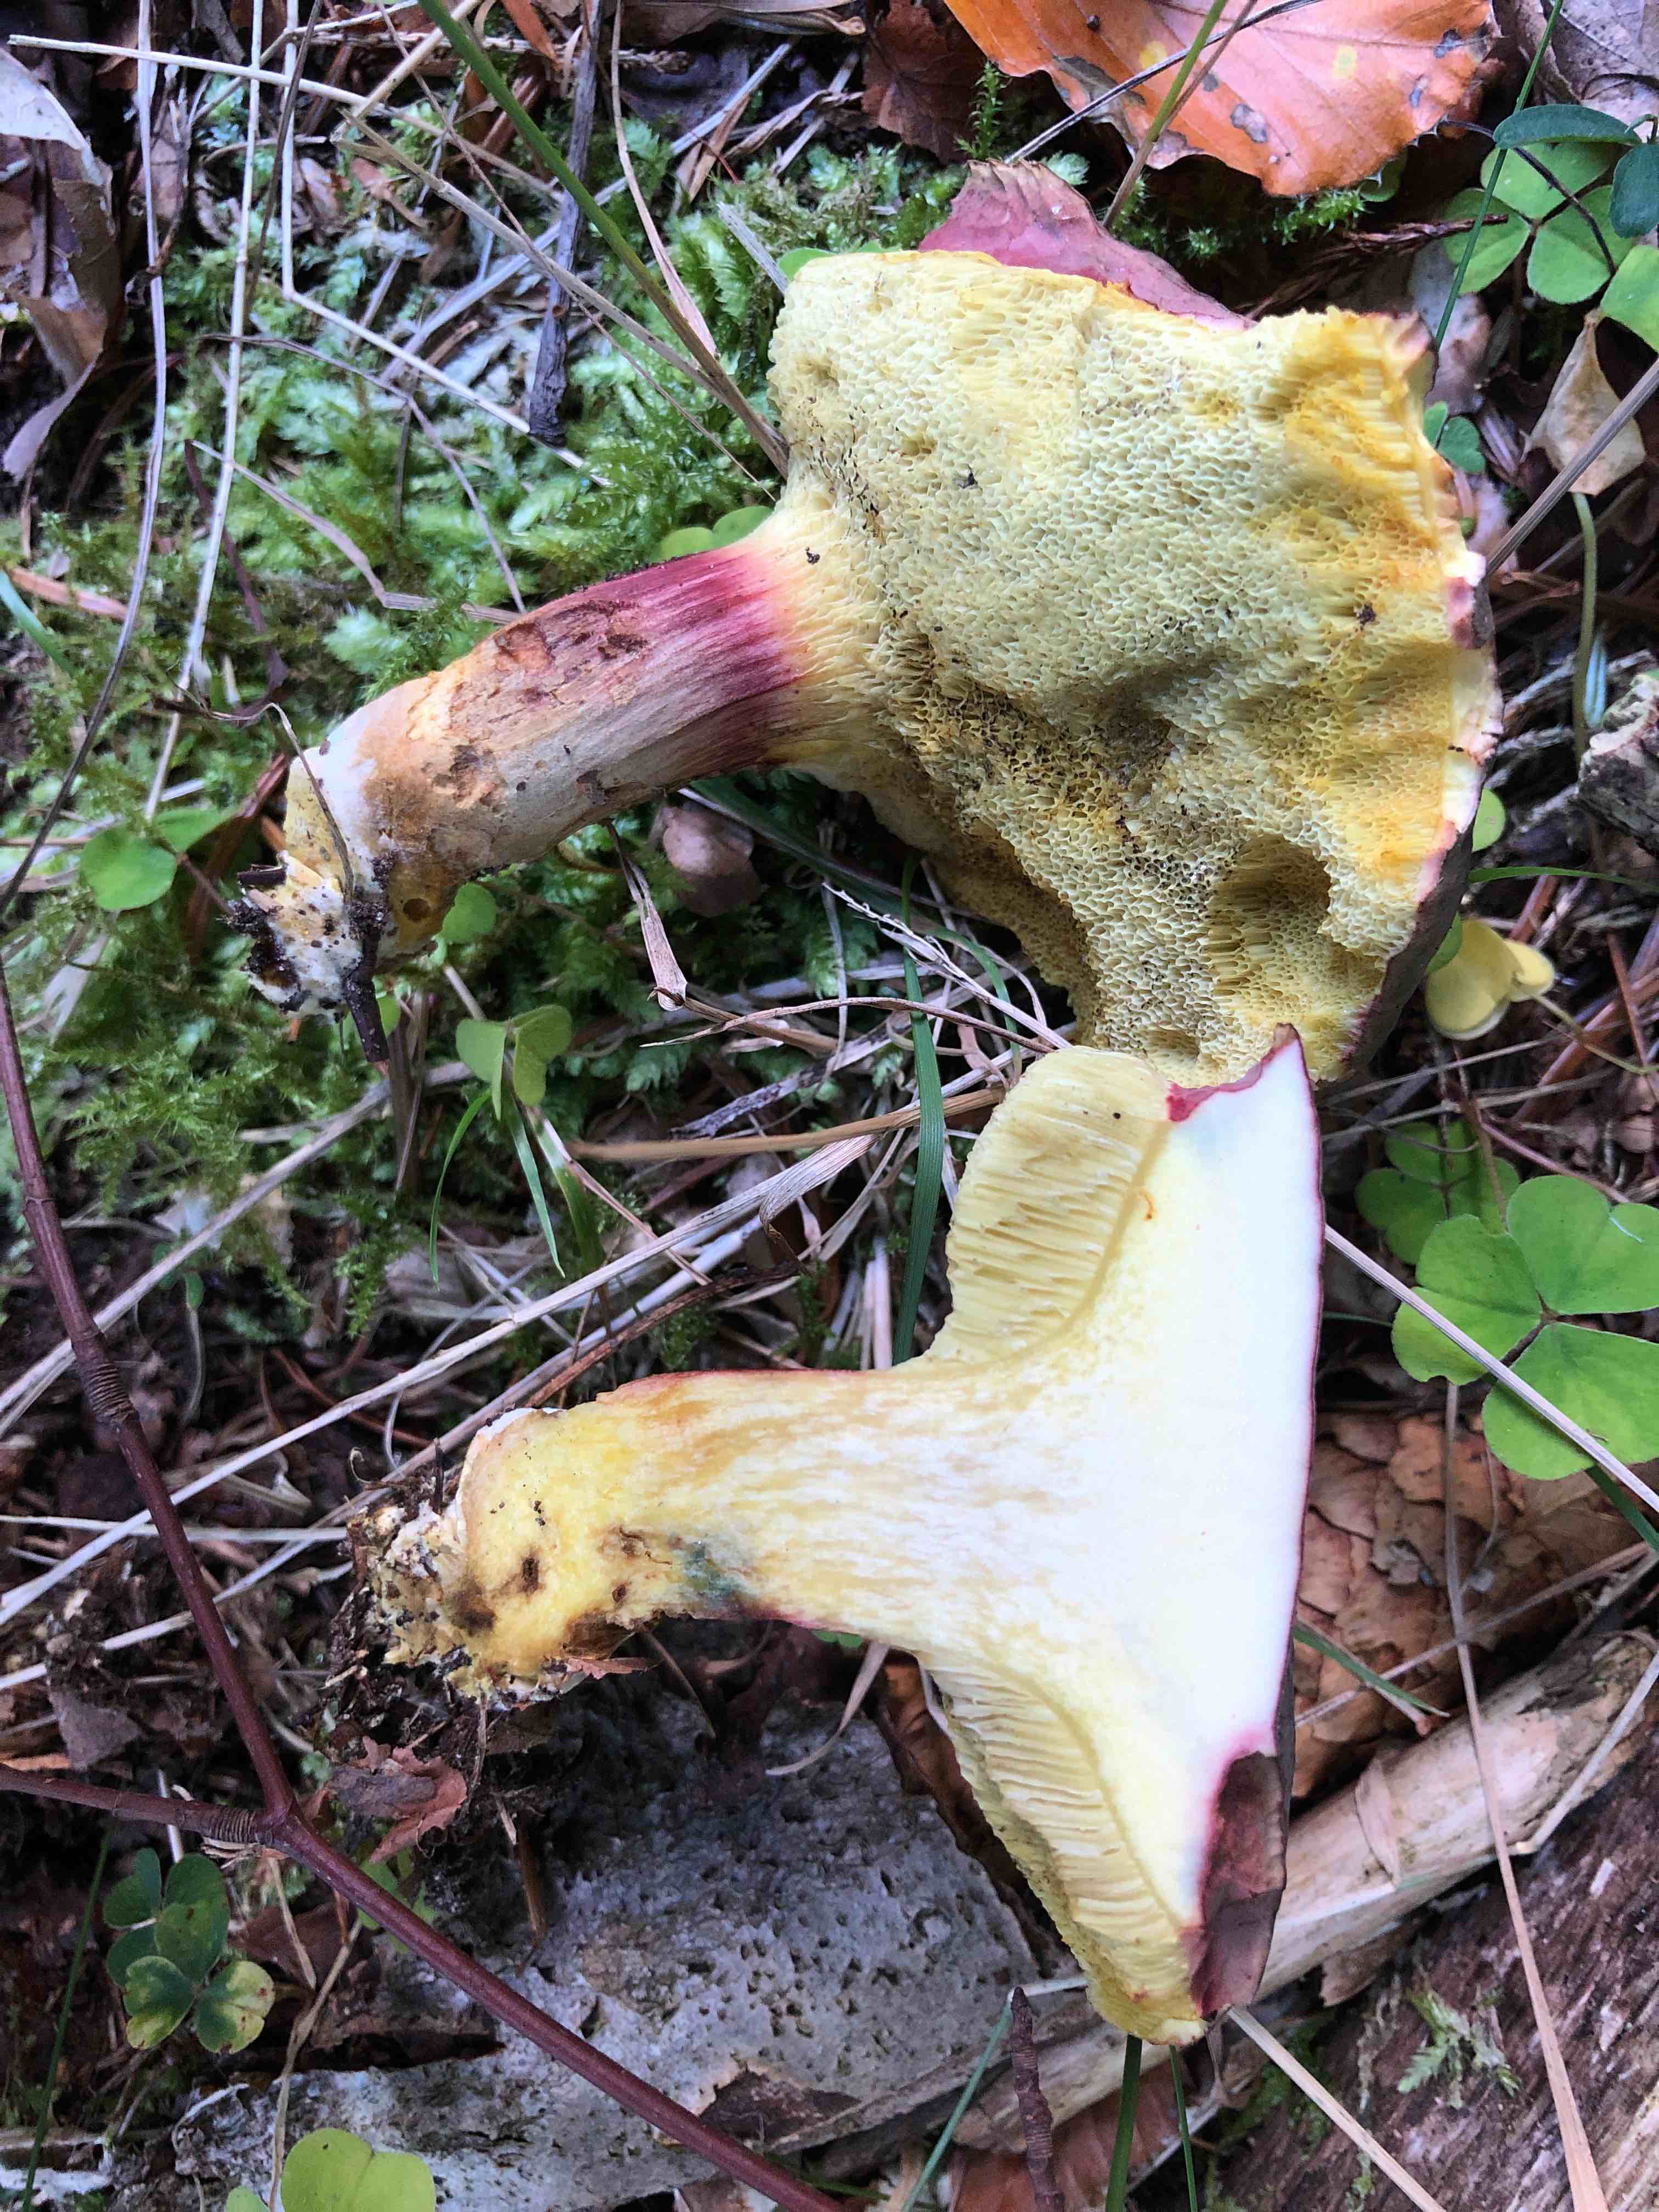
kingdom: Fungi
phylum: Basidiomycota
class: Agaricomycetes
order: Boletales
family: Boletaceae
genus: Xerocomellus
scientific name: Xerocomellus pruinatus
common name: dugget rørhat
